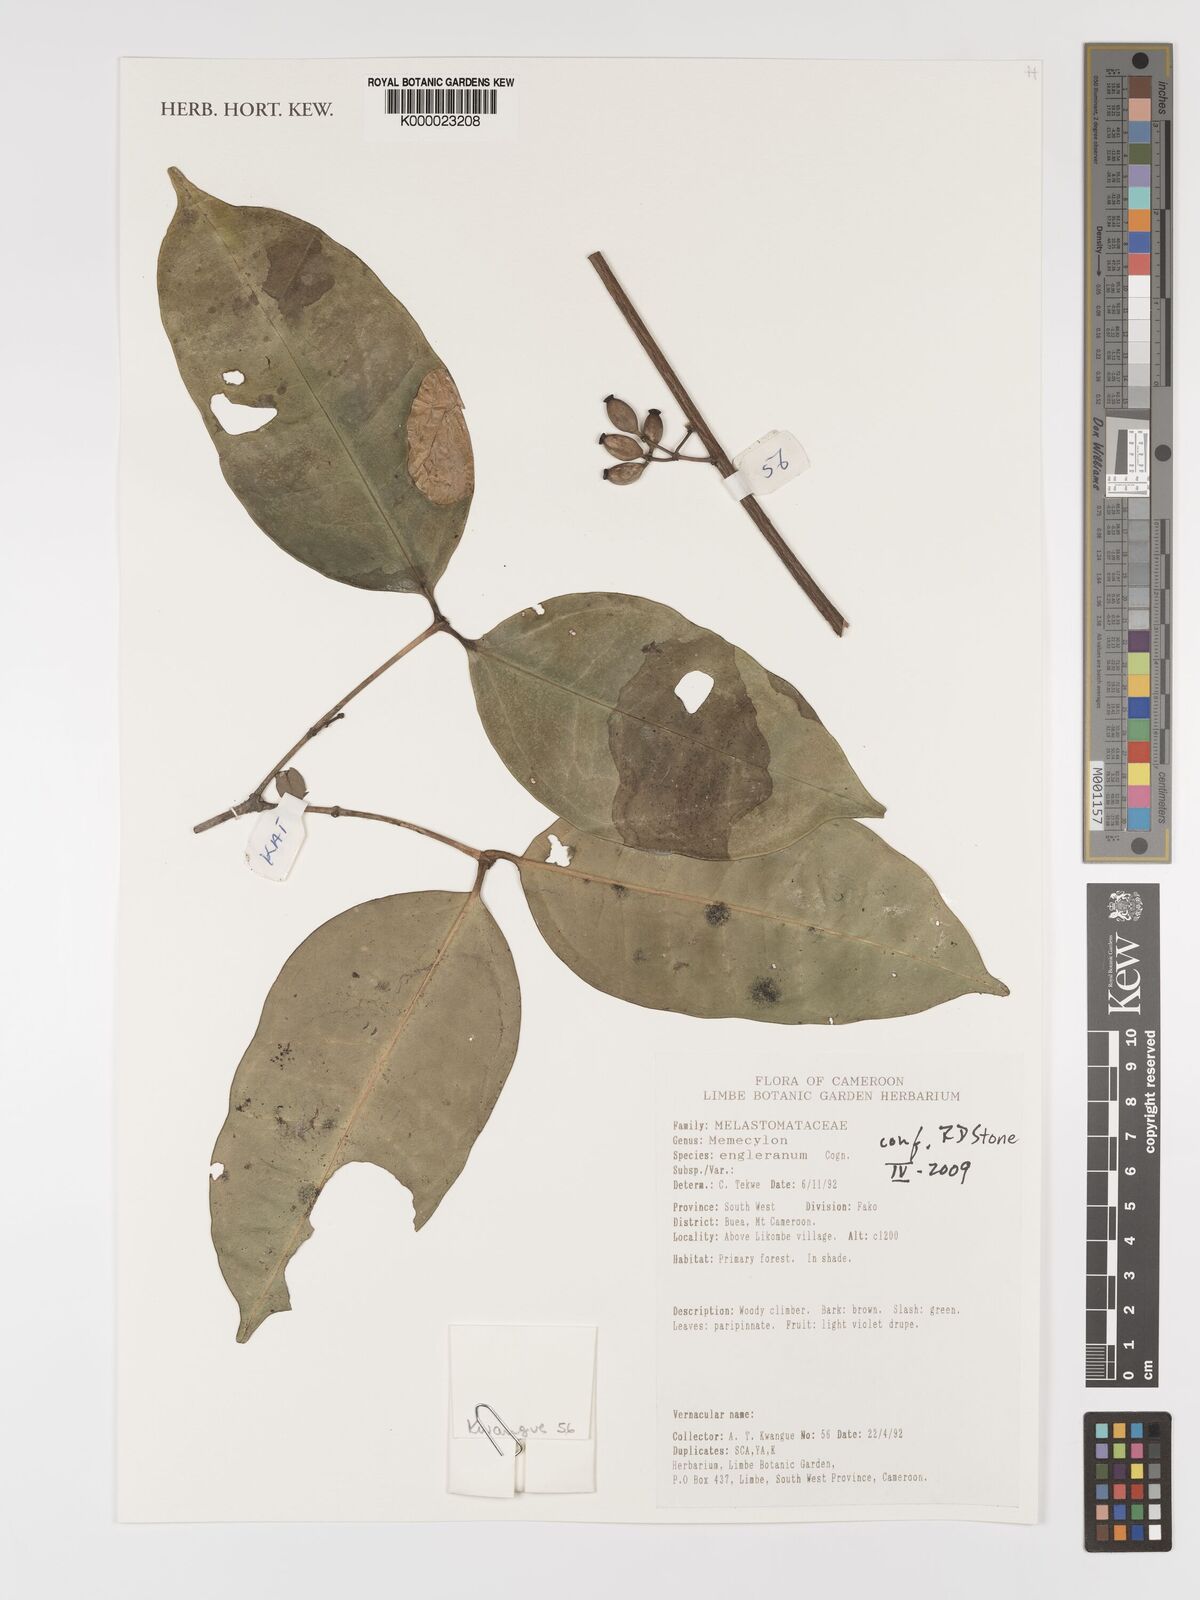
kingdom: Plantae
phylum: Tracheophyta
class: Magnoliopsida
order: Myrtales
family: Melastomataceae
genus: Memecylon
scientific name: Memecylon englerianum
